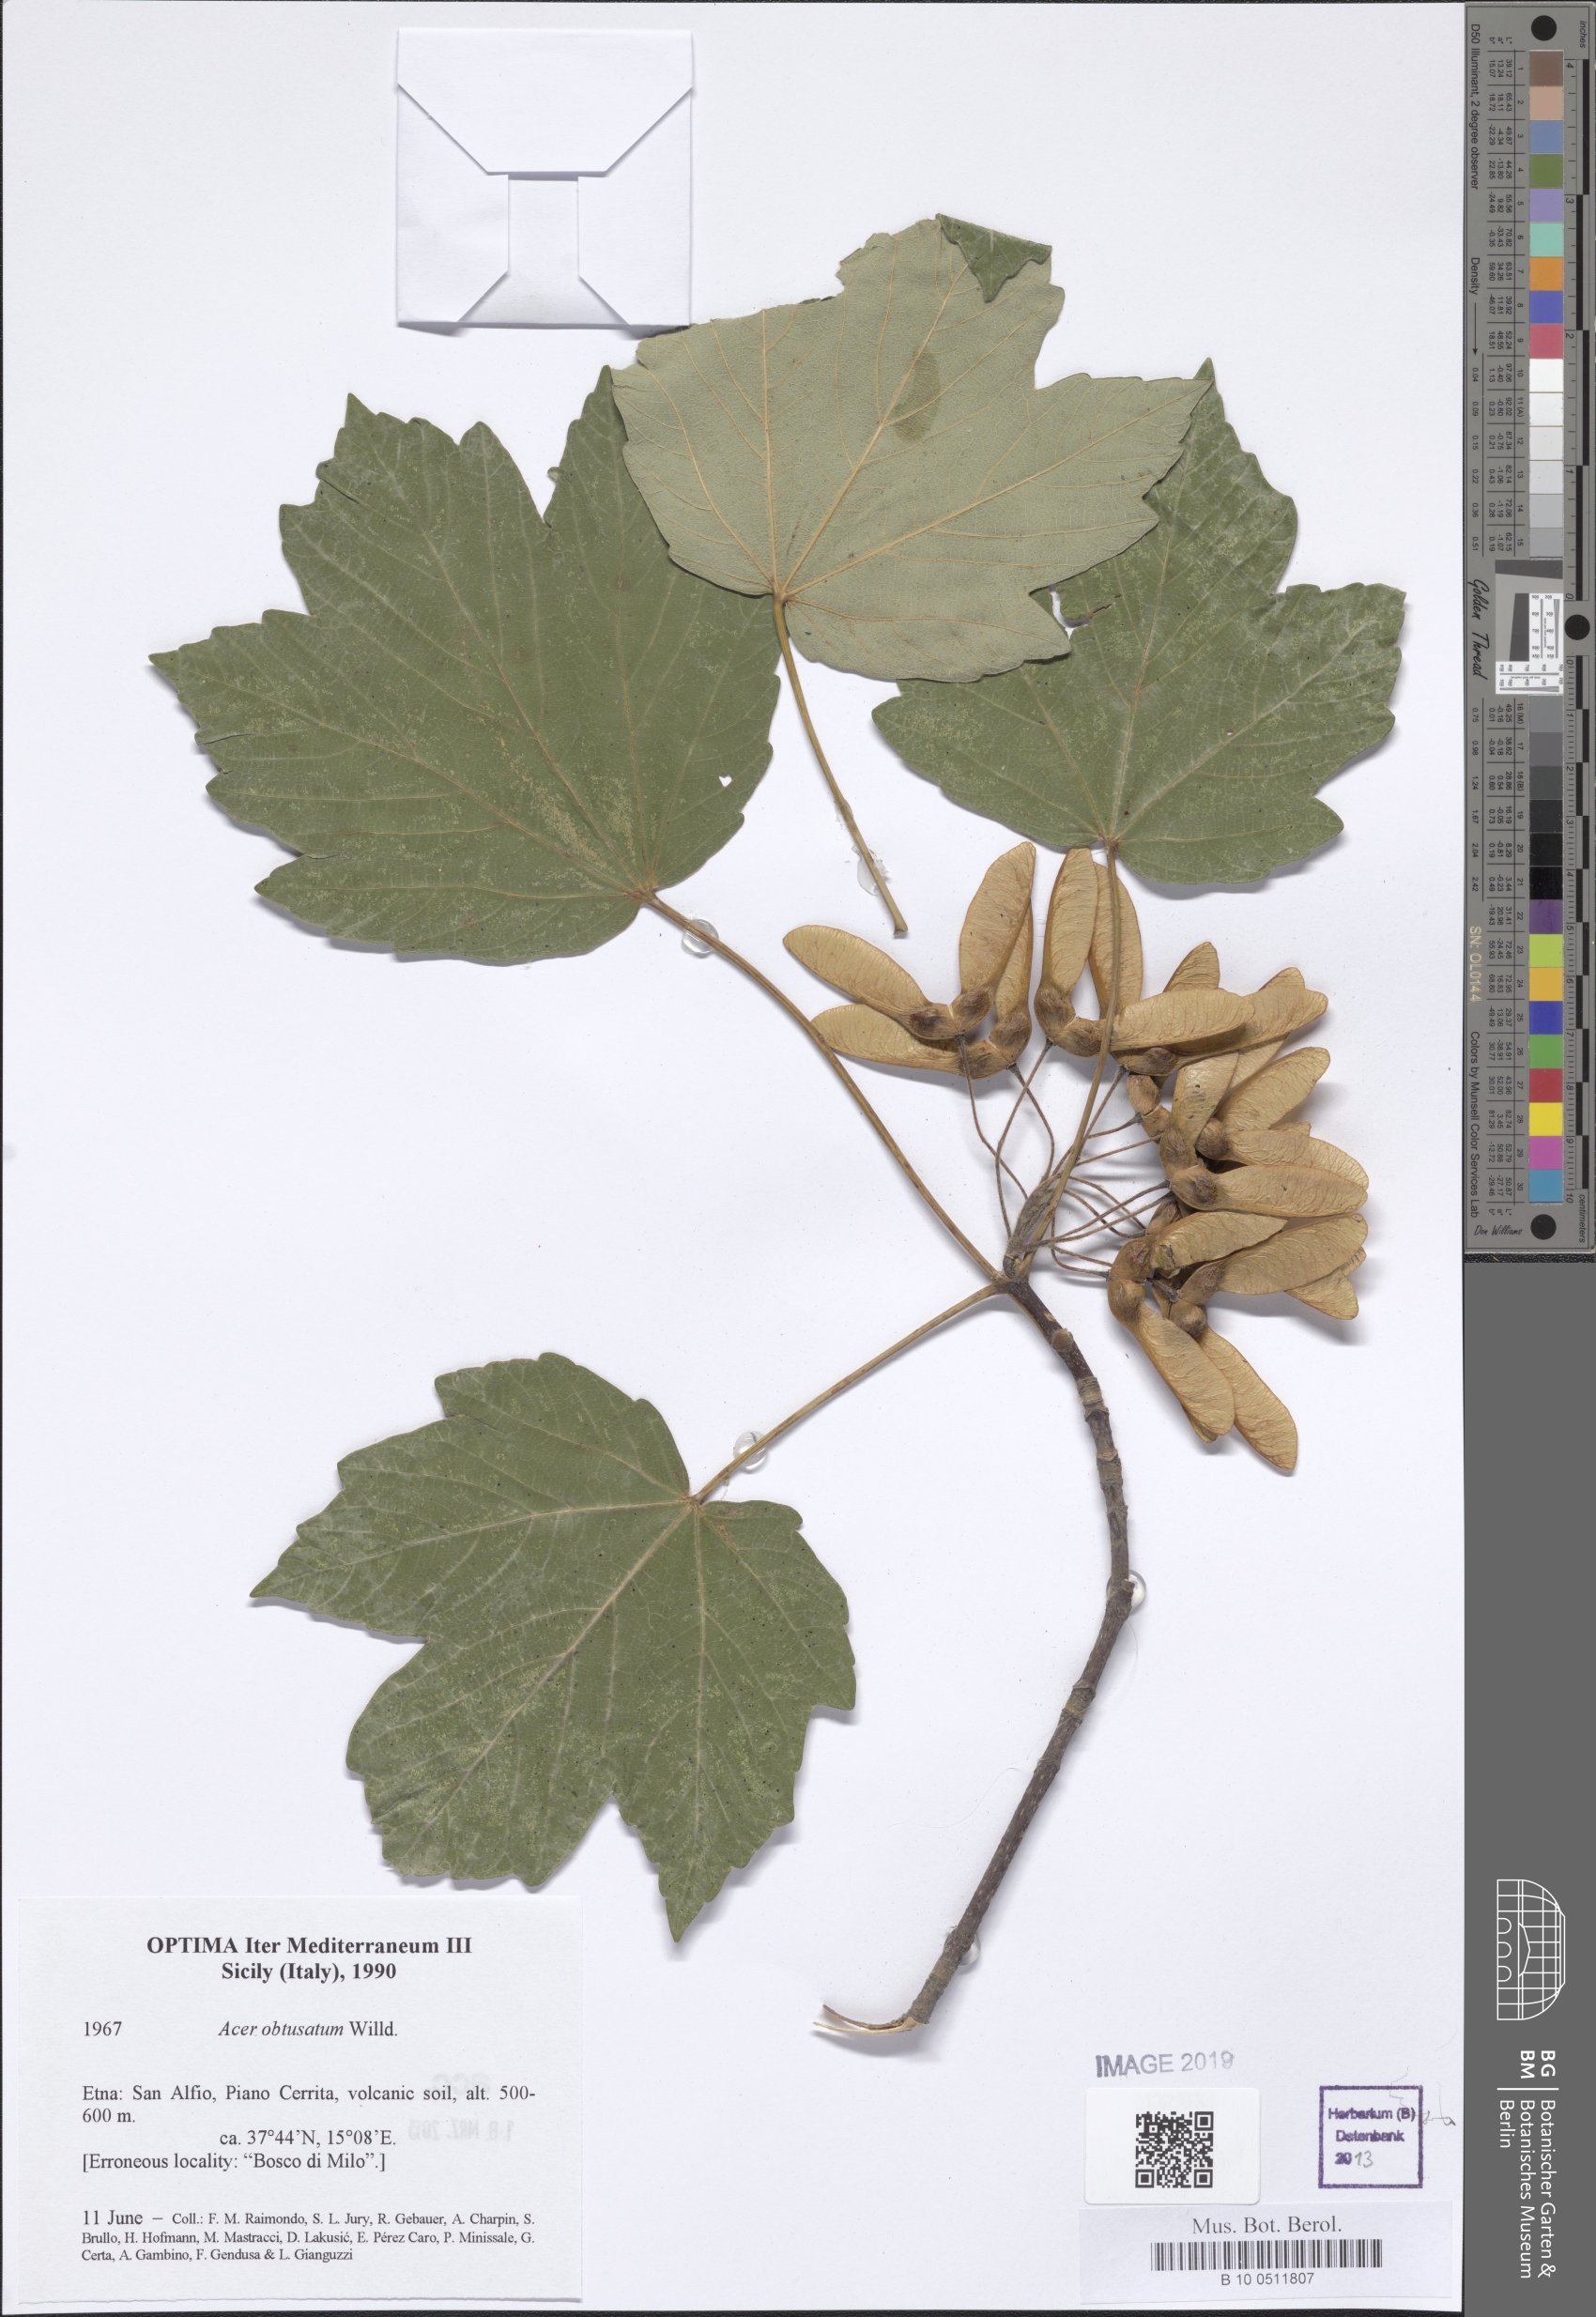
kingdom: Plantae
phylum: Tracheophyta
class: Magnoliopsida
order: Sapindales
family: Sapindaceae
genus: Acer
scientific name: Acer obtusatum
